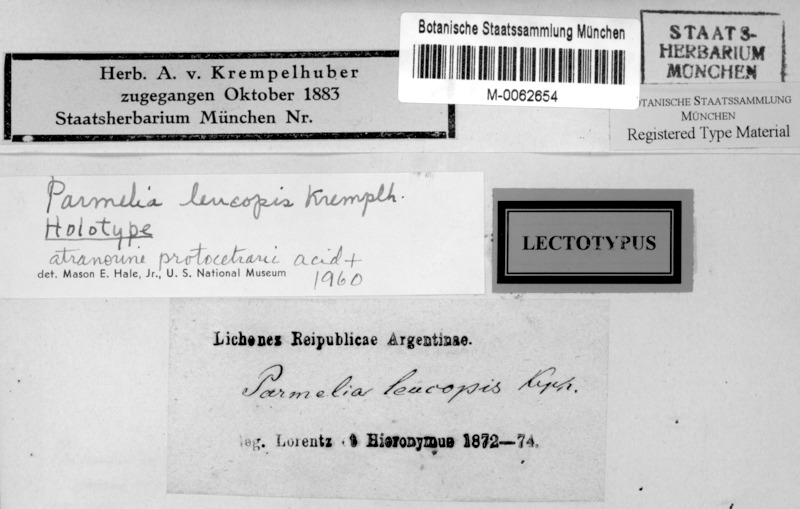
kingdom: Fungi
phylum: Ascomycota
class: Lecanoromycetes
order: Lecanorales
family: Parmeliaceae
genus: Pseudoparmelia
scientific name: Pseudoparmelia
